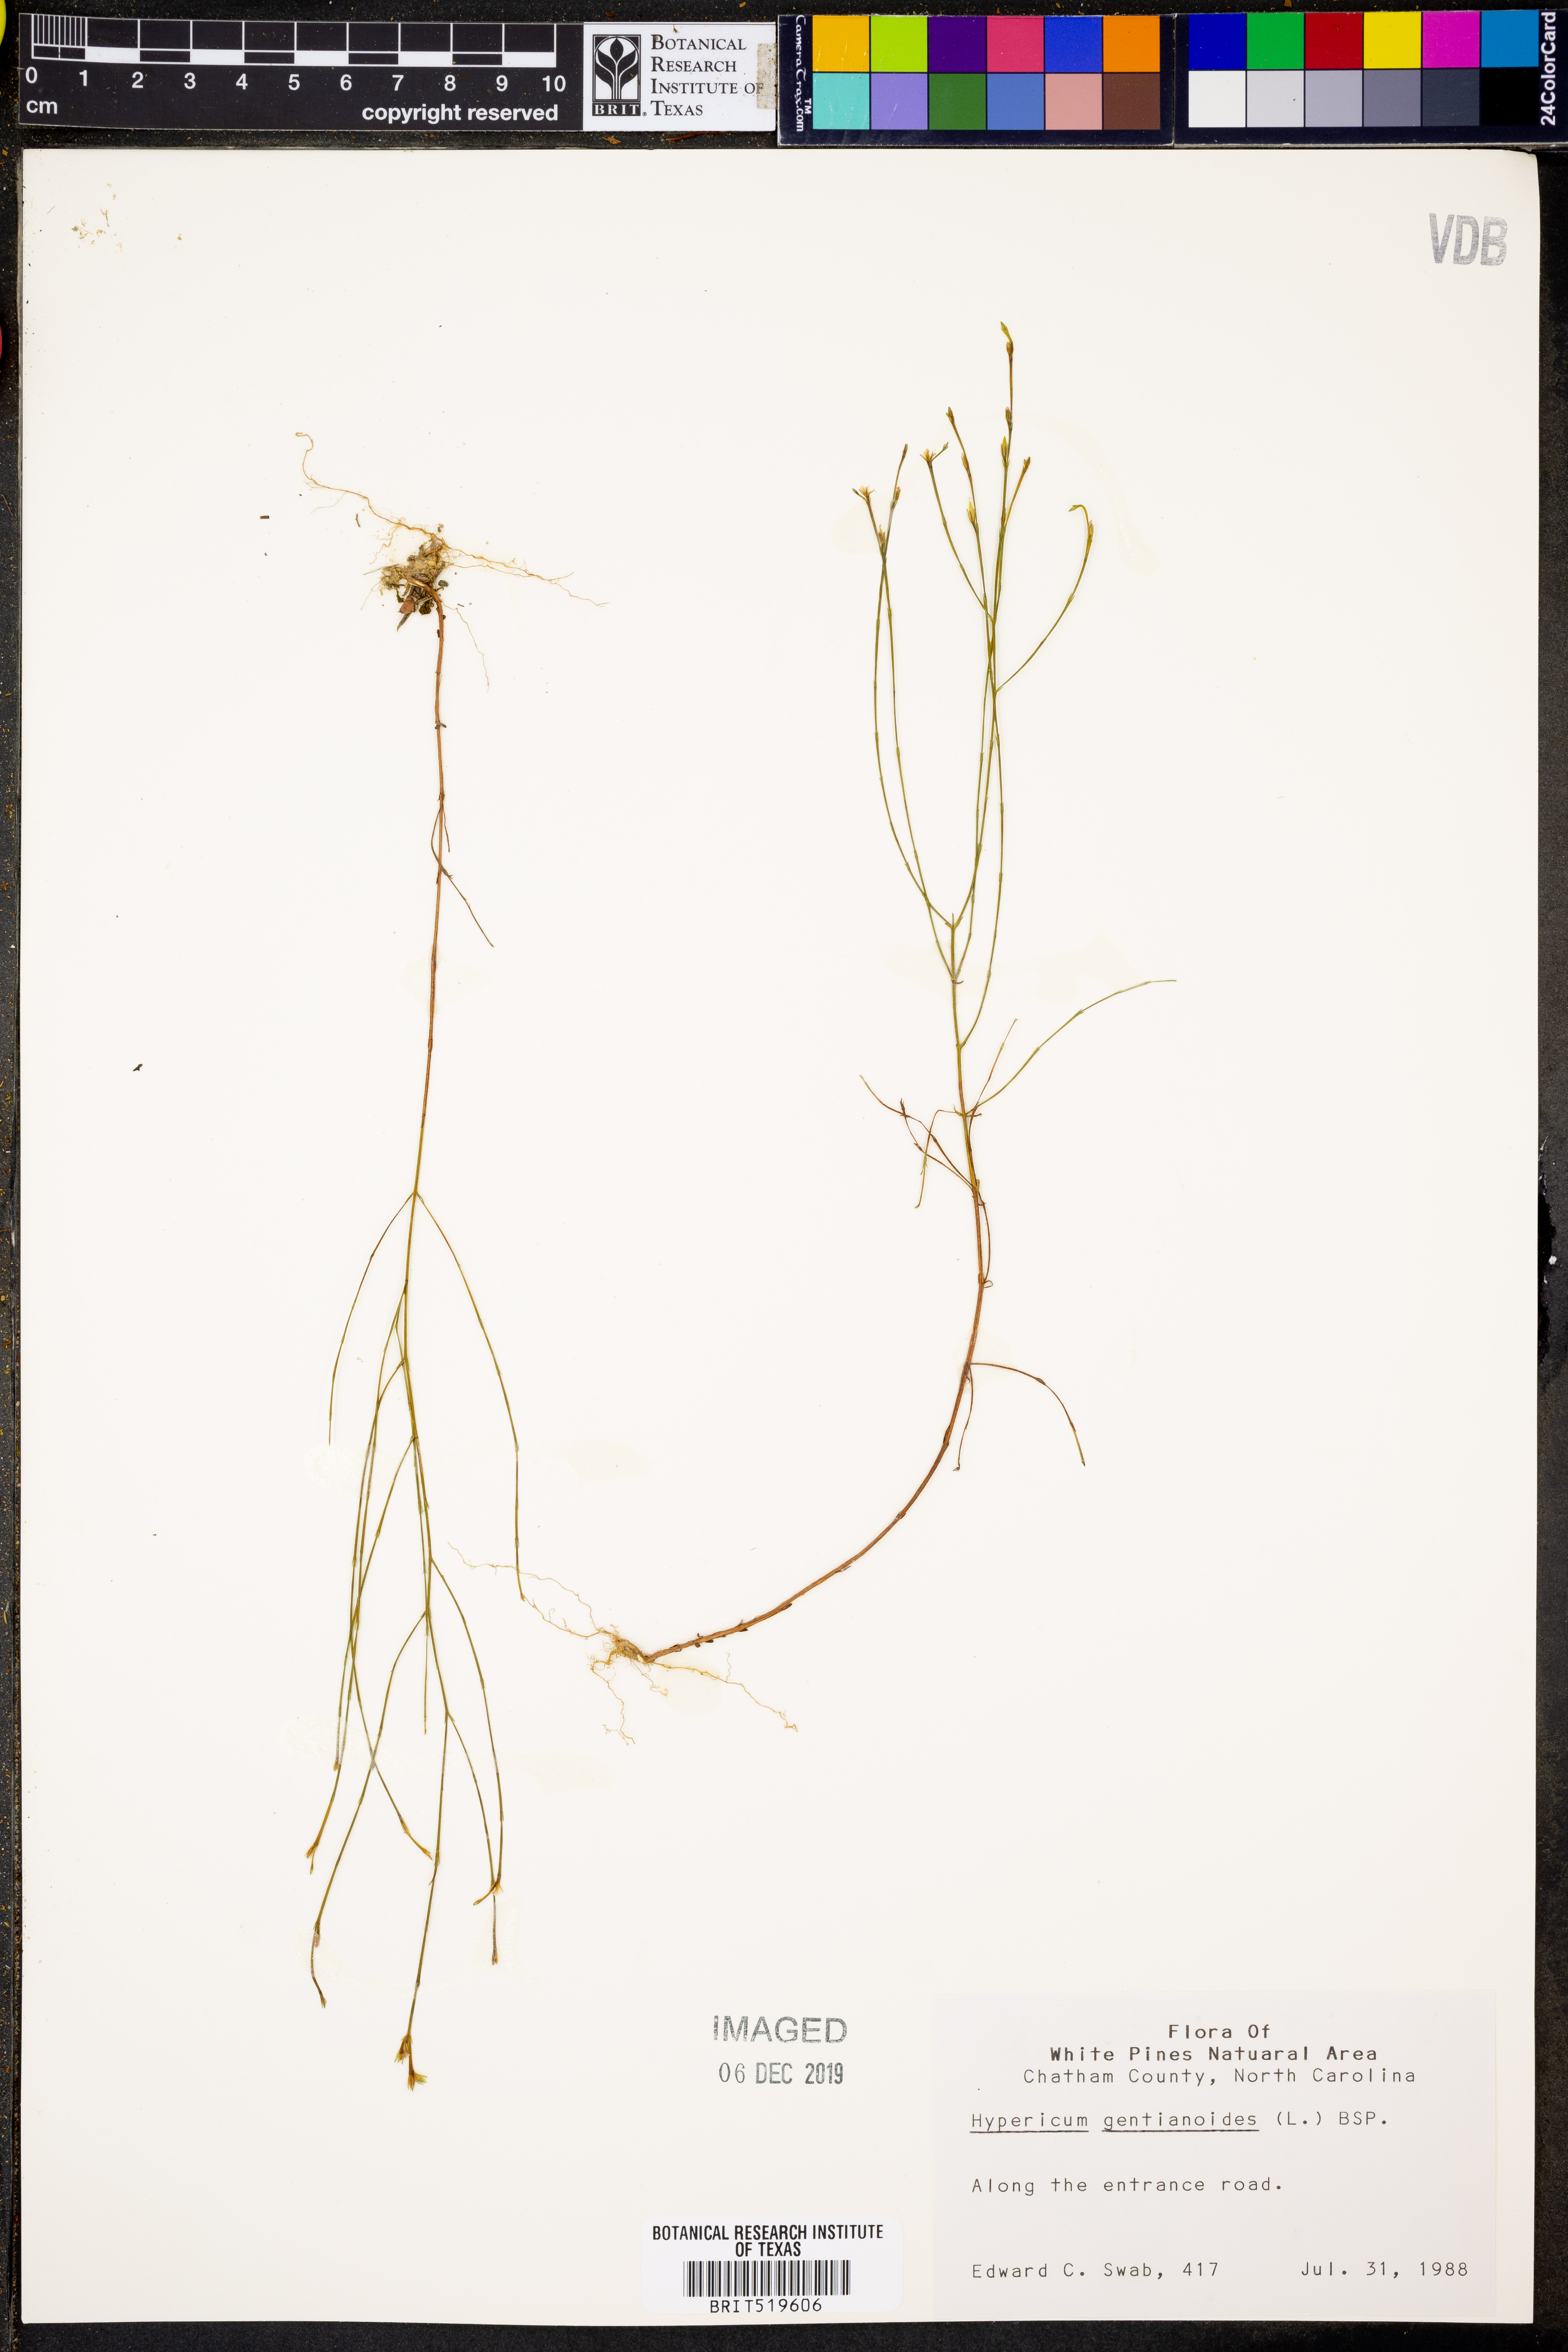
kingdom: Plantae
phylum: Tracheophyta
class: Magnoliopsida
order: Malpighiales
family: Hypericaceae
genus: Hypericum
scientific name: Hypericum gentianoides
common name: Gentian-leaved st. john's-wort
